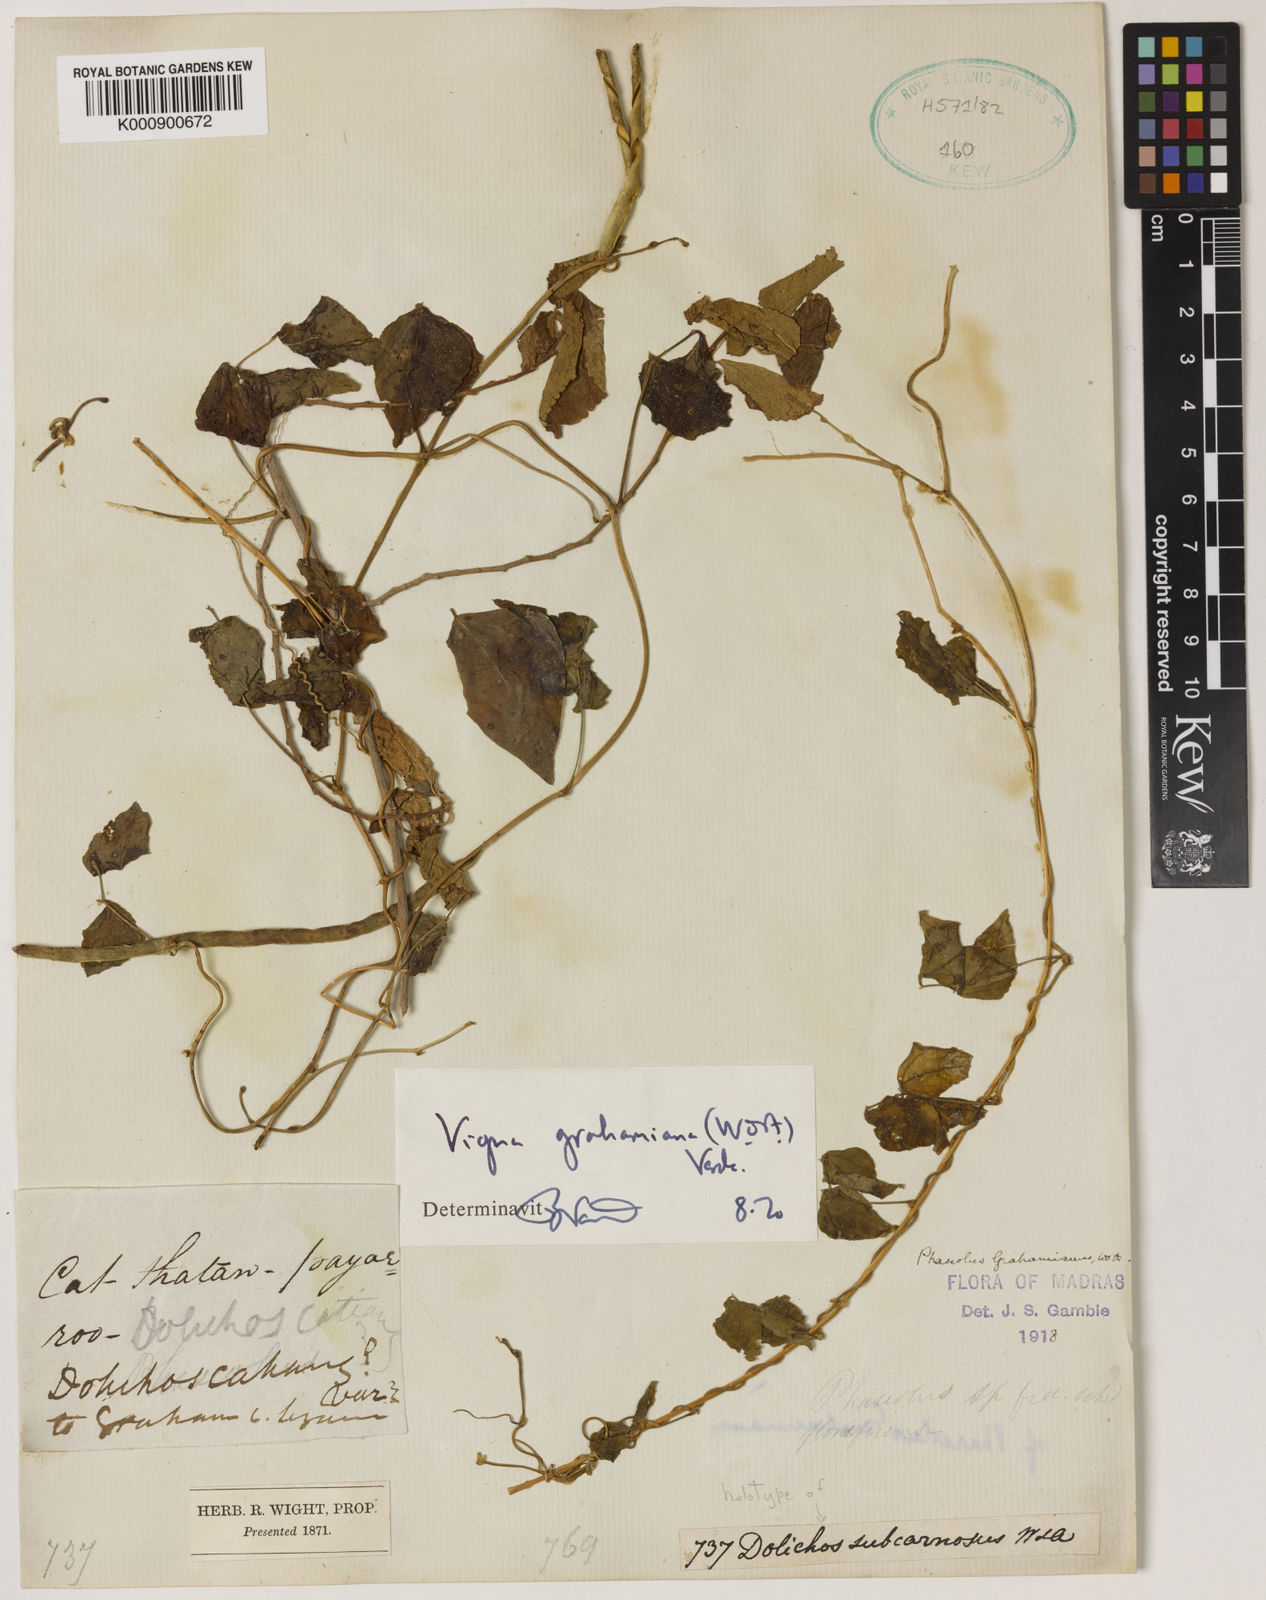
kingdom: Plantae
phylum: Tracheophyta
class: Magnoliopsida
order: Fabales
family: Fabaceae
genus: Wajira
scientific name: Wajira grahamiana
